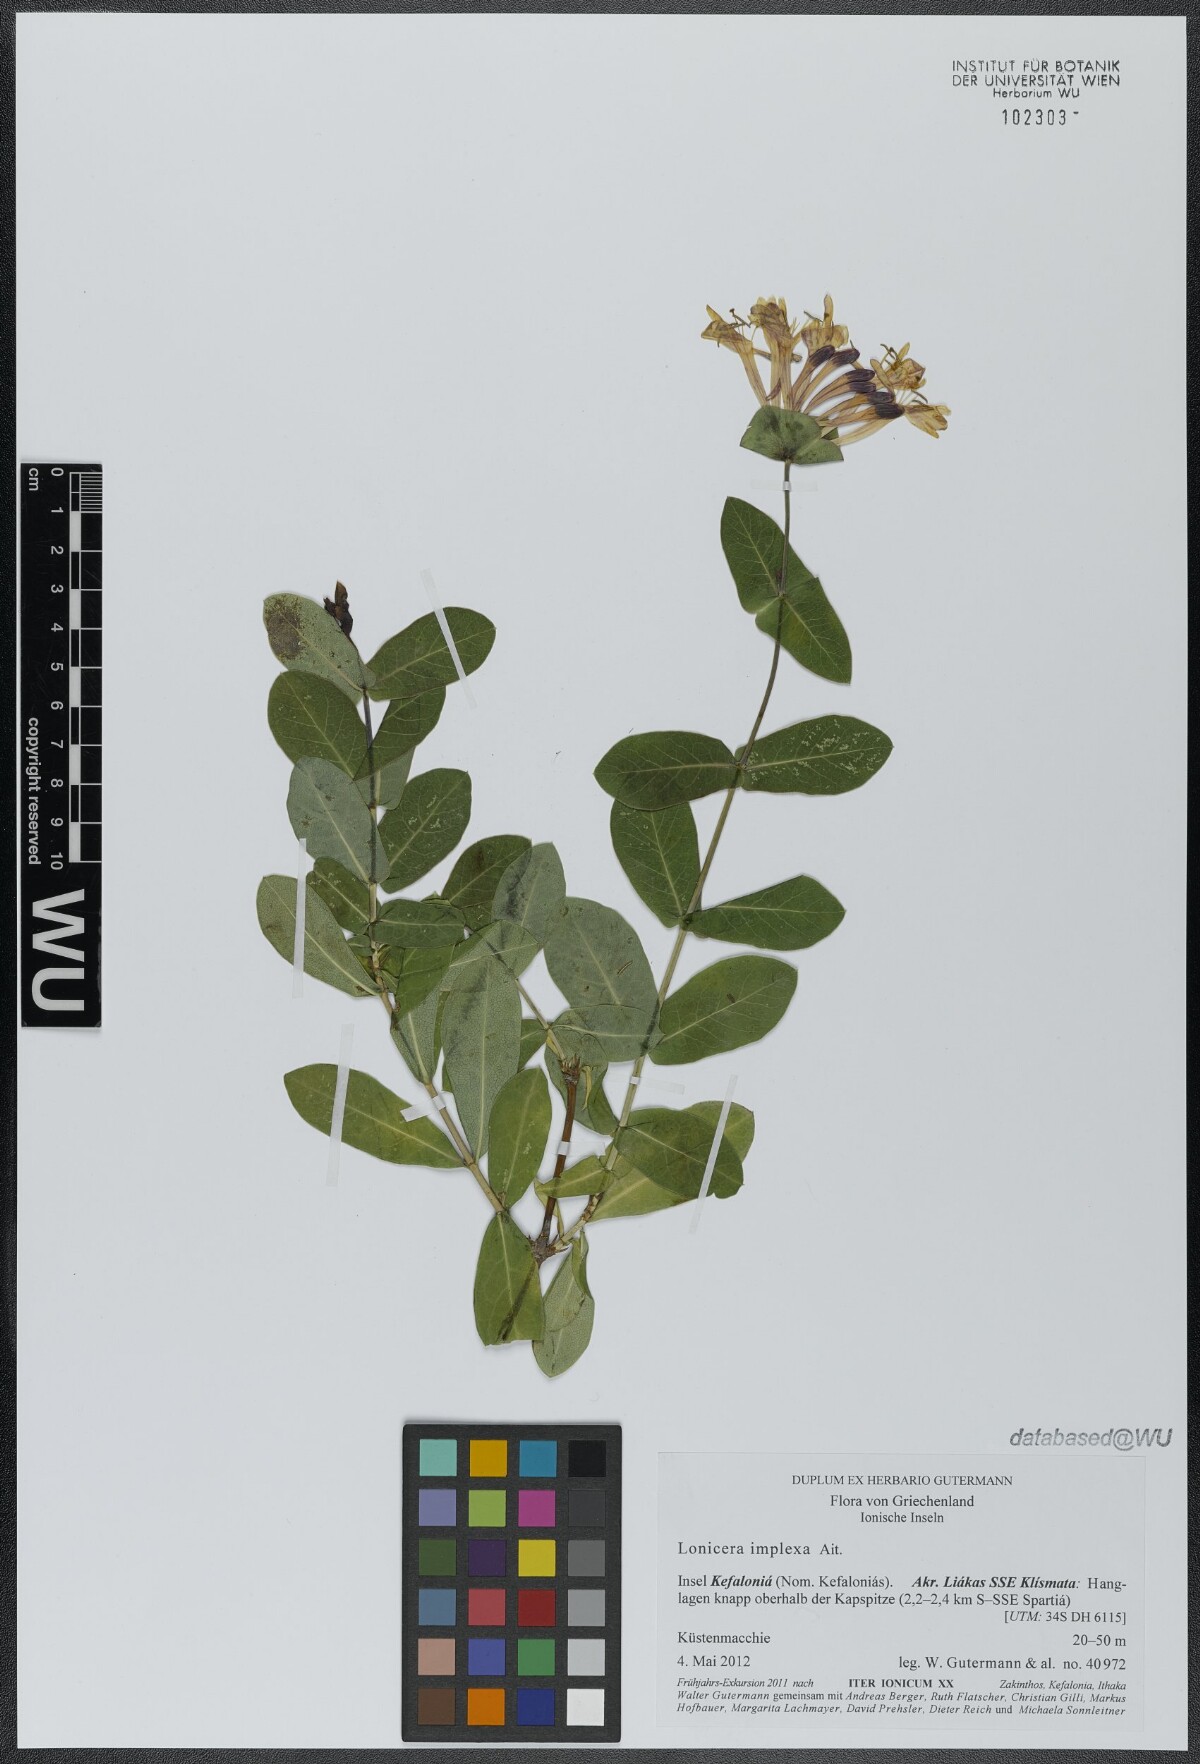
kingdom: Plantae
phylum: Tracheophyta
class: Magnoliopsida
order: Dipsacales
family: Caprifoliaceae
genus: Lonicera
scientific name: Lonicera implexa
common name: Minorca honeysuckle
